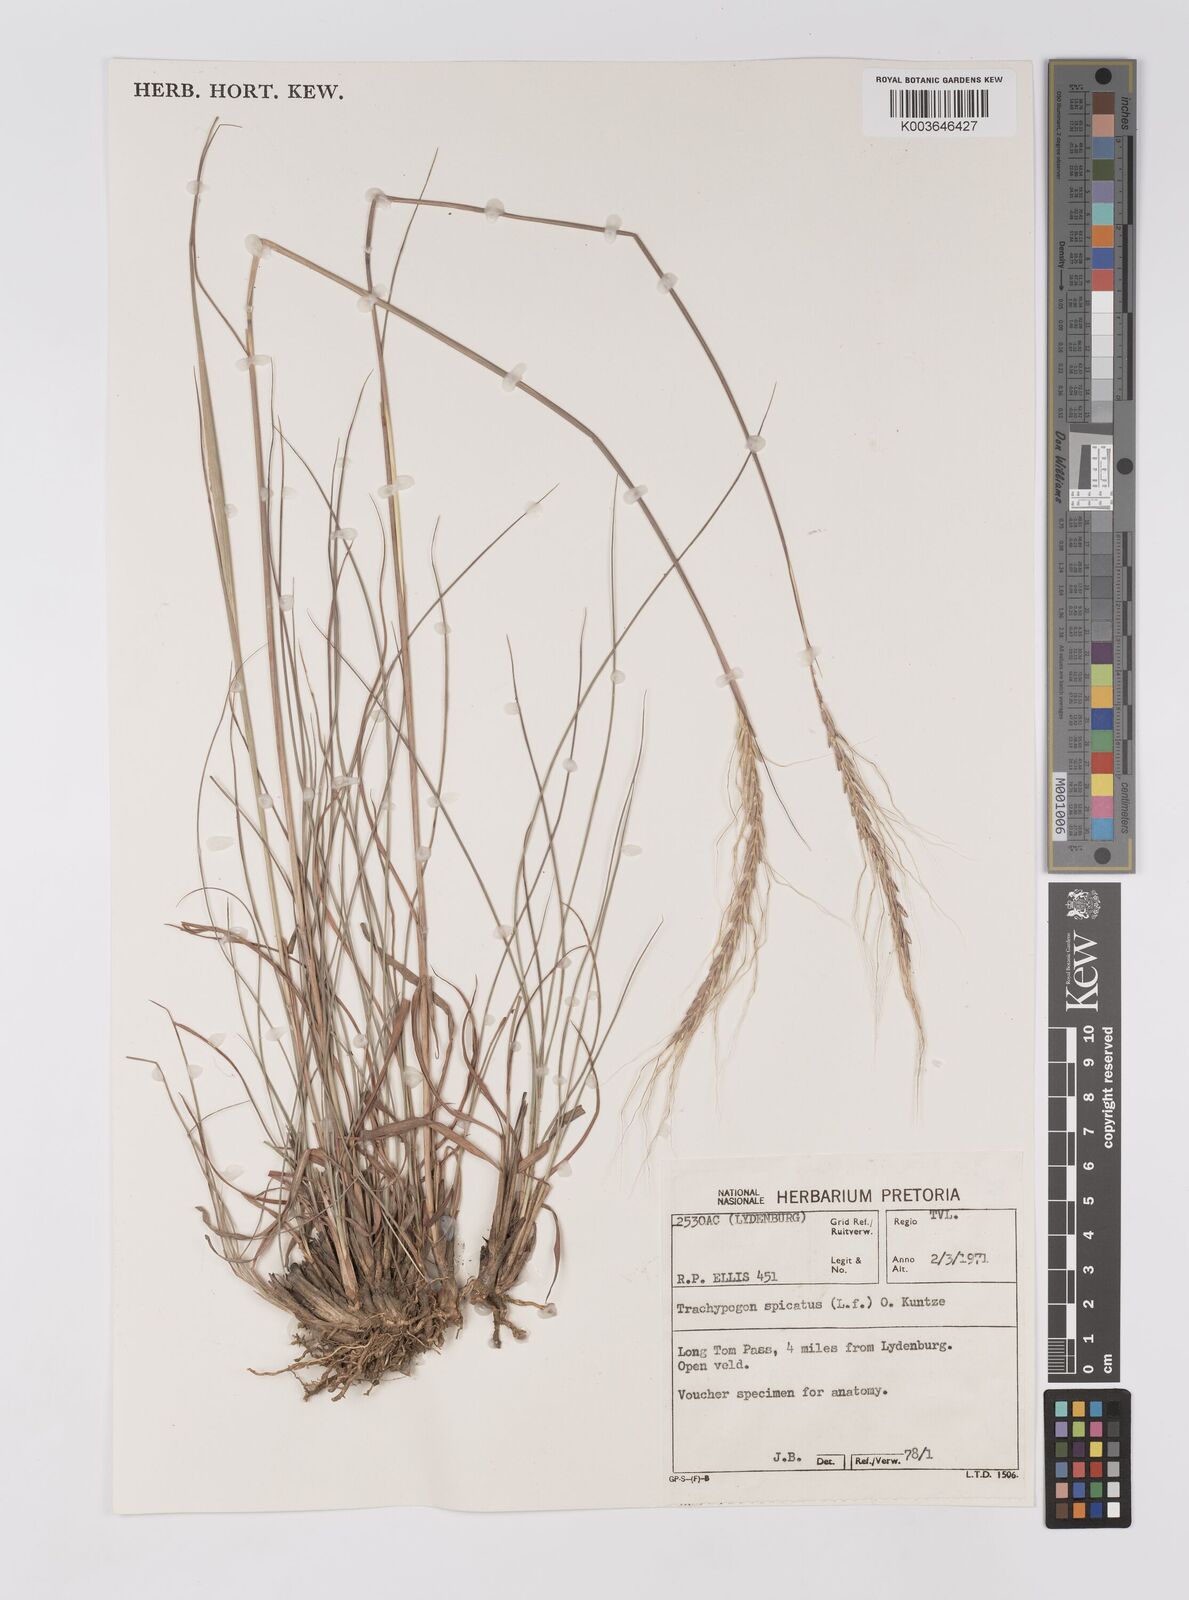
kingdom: Plantae
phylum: Tracheophyta
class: Liliopsida
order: Poales
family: Poaceae
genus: Trachypogon
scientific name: Trachypogon spicatus
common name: Crinkle-awn
